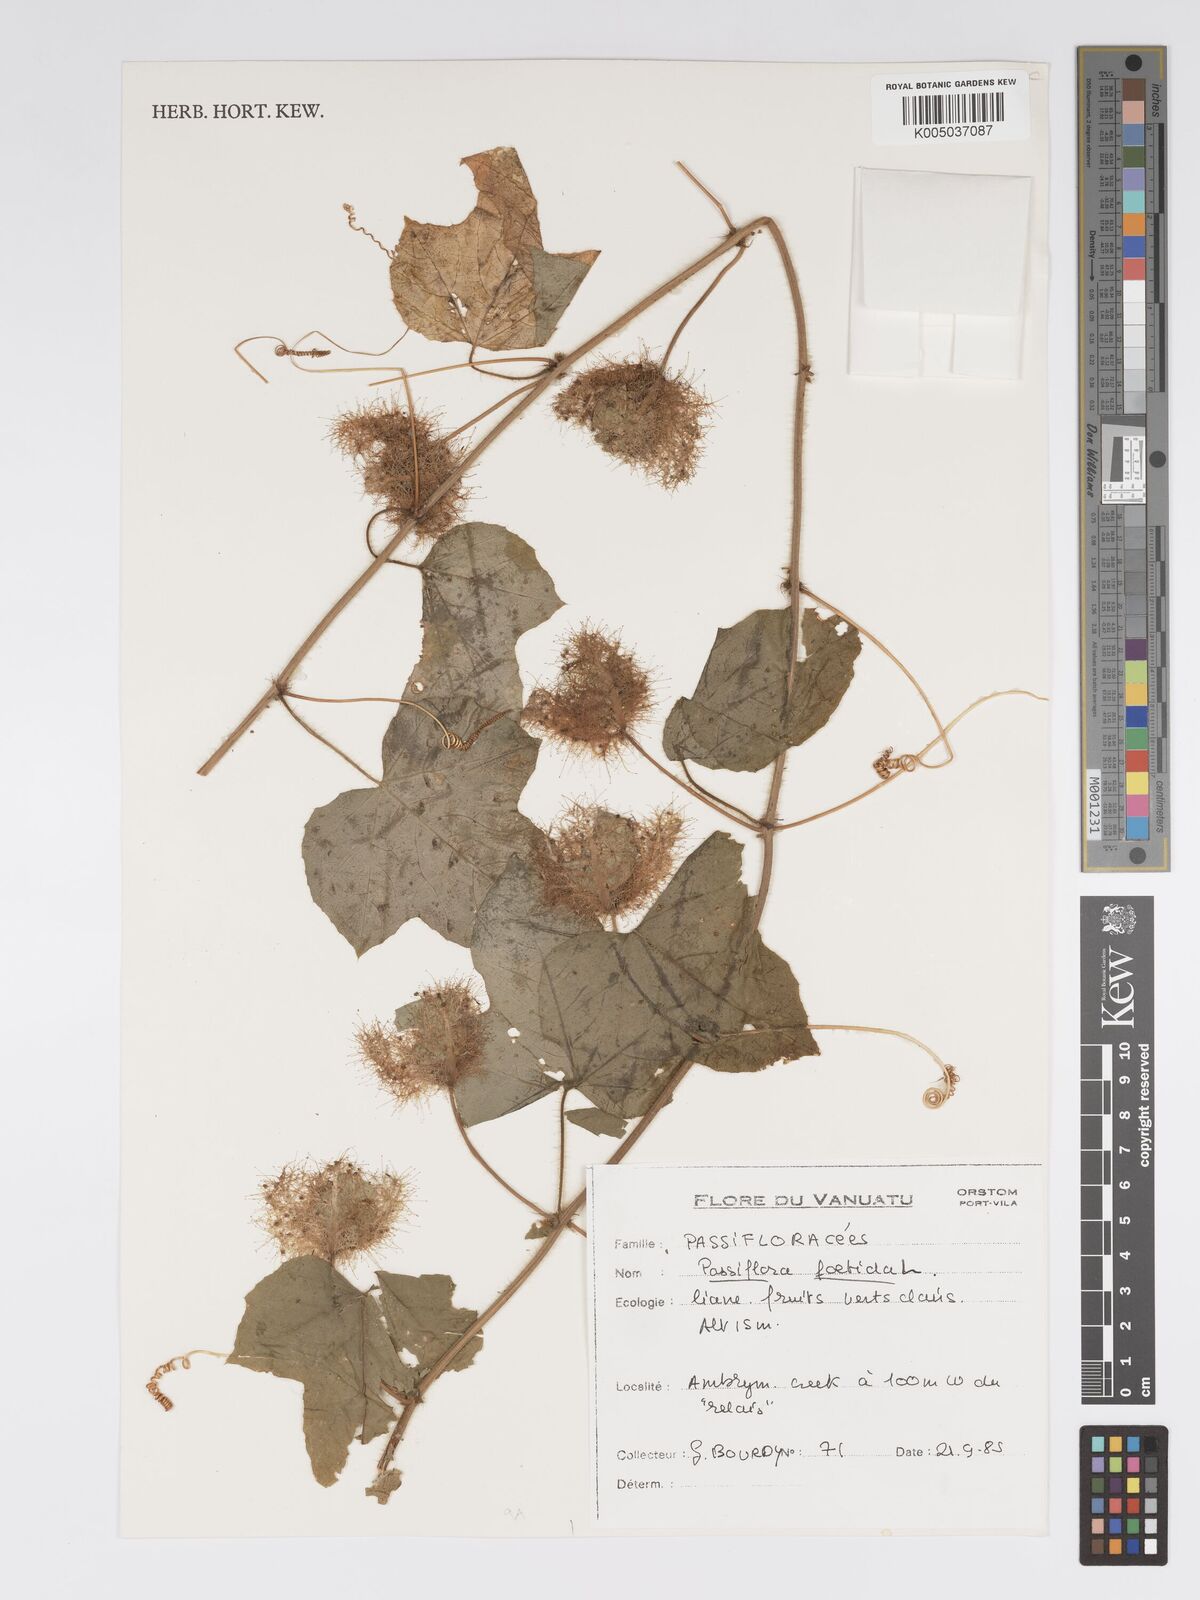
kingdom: Plantae
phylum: Tracheophyta
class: Magnoliopsida
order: Malpighiales
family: Passifloraceae
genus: Passiflora
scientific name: Passiflora foetida
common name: Fetid passionflower
